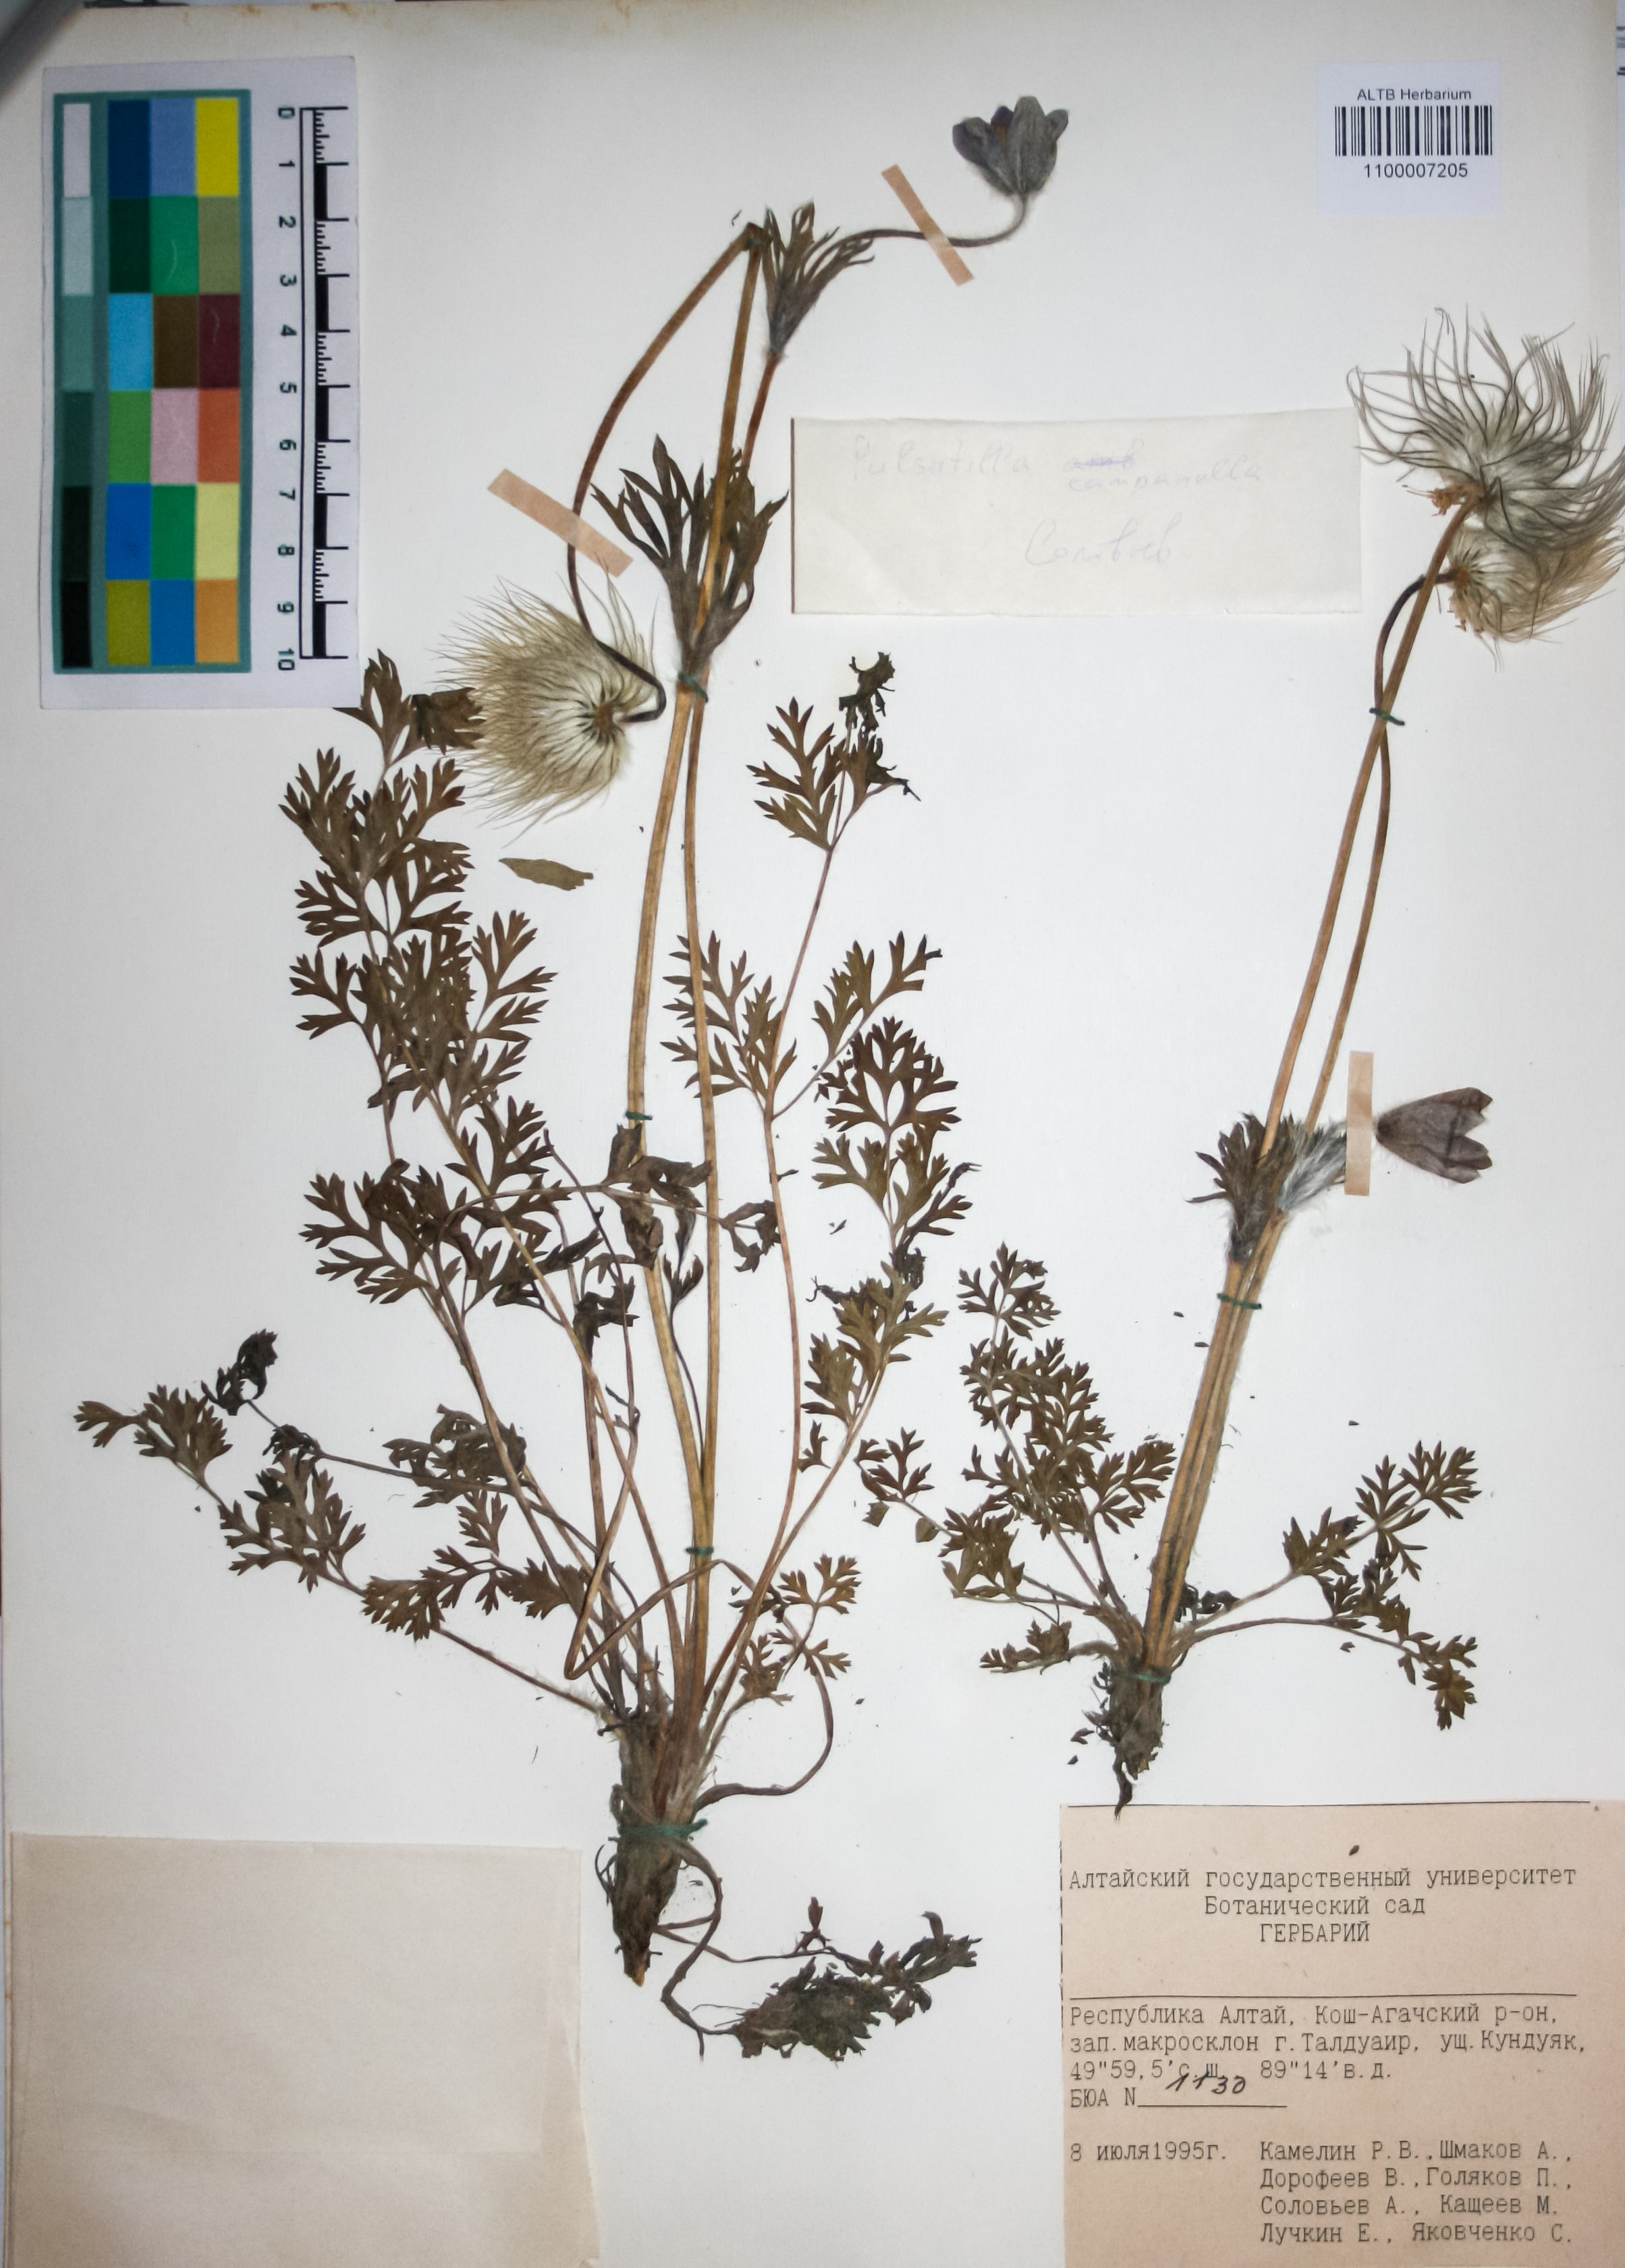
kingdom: Plantae
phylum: Tracheophyta
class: Magnoliopsida
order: Ranunculales
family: Ranunculaceae
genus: Pulsatilla
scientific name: Pulsatilla campanella
